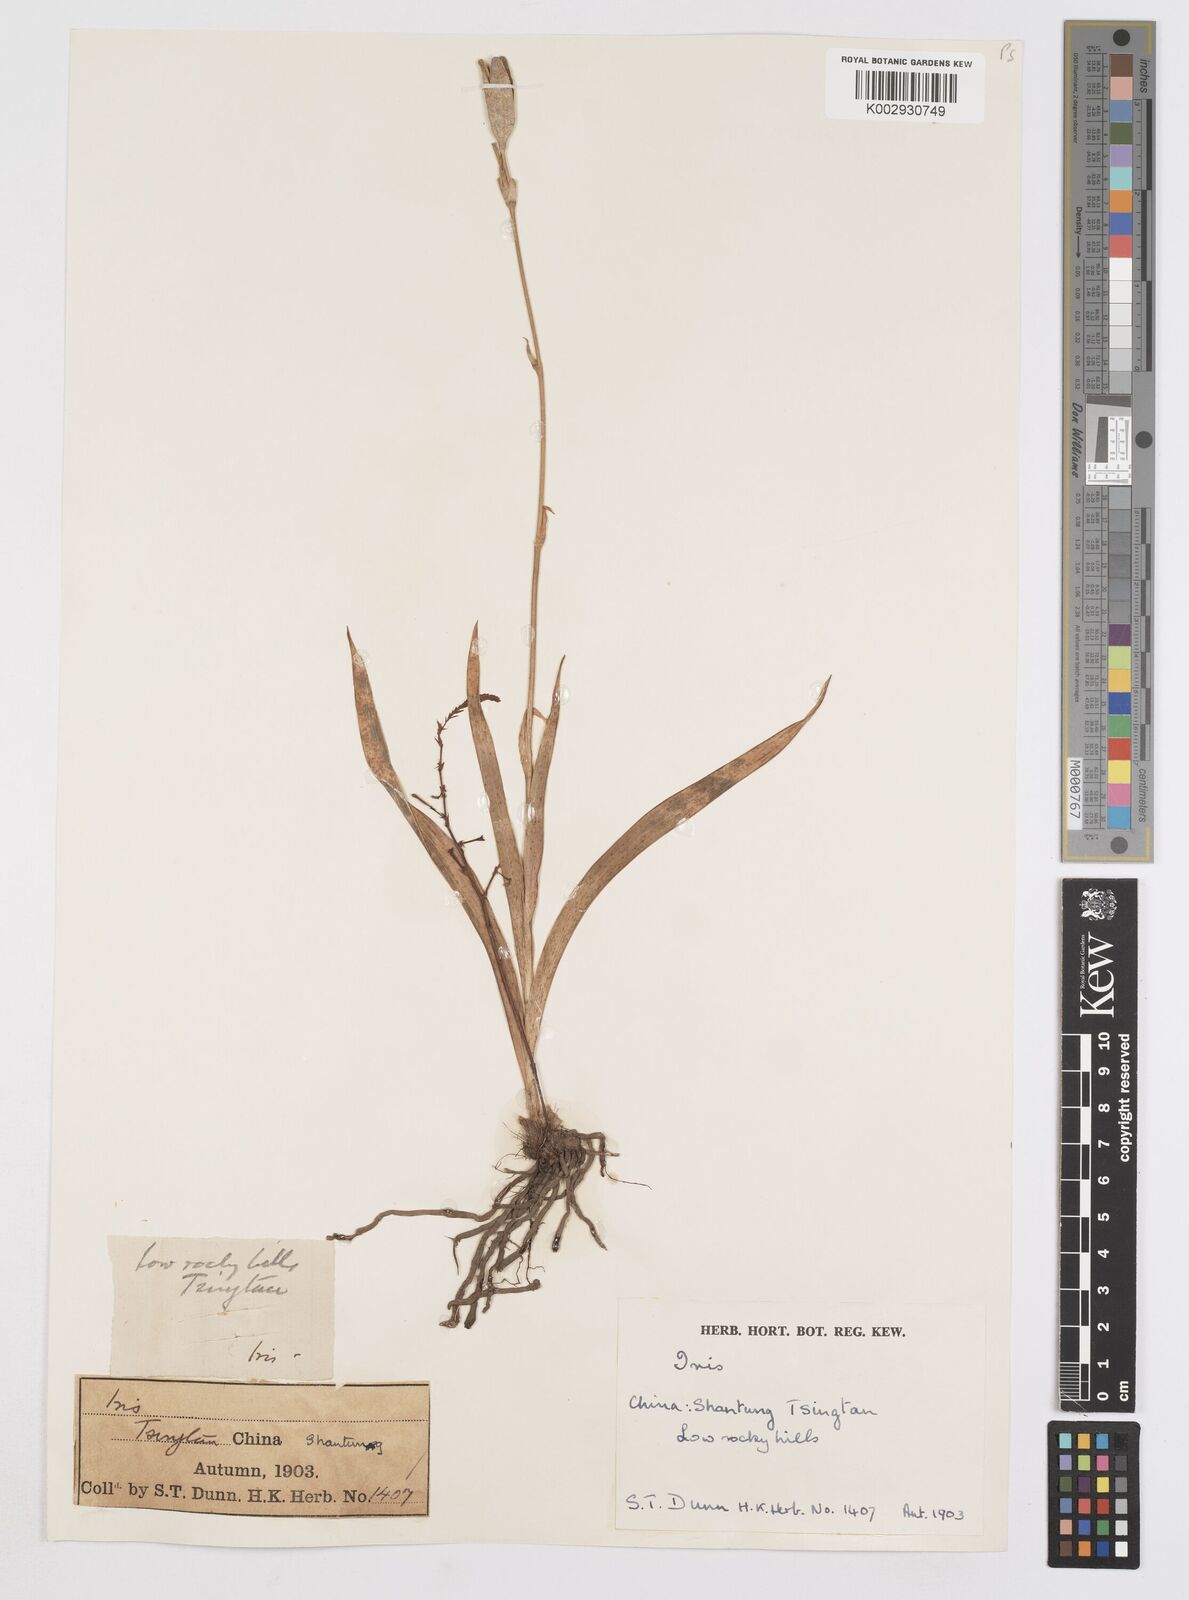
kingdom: Plantae
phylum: Tracheophyta
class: Liliopsida
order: Asparagales
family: Iridaceae
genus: Iris
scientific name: Iris dichotoma
